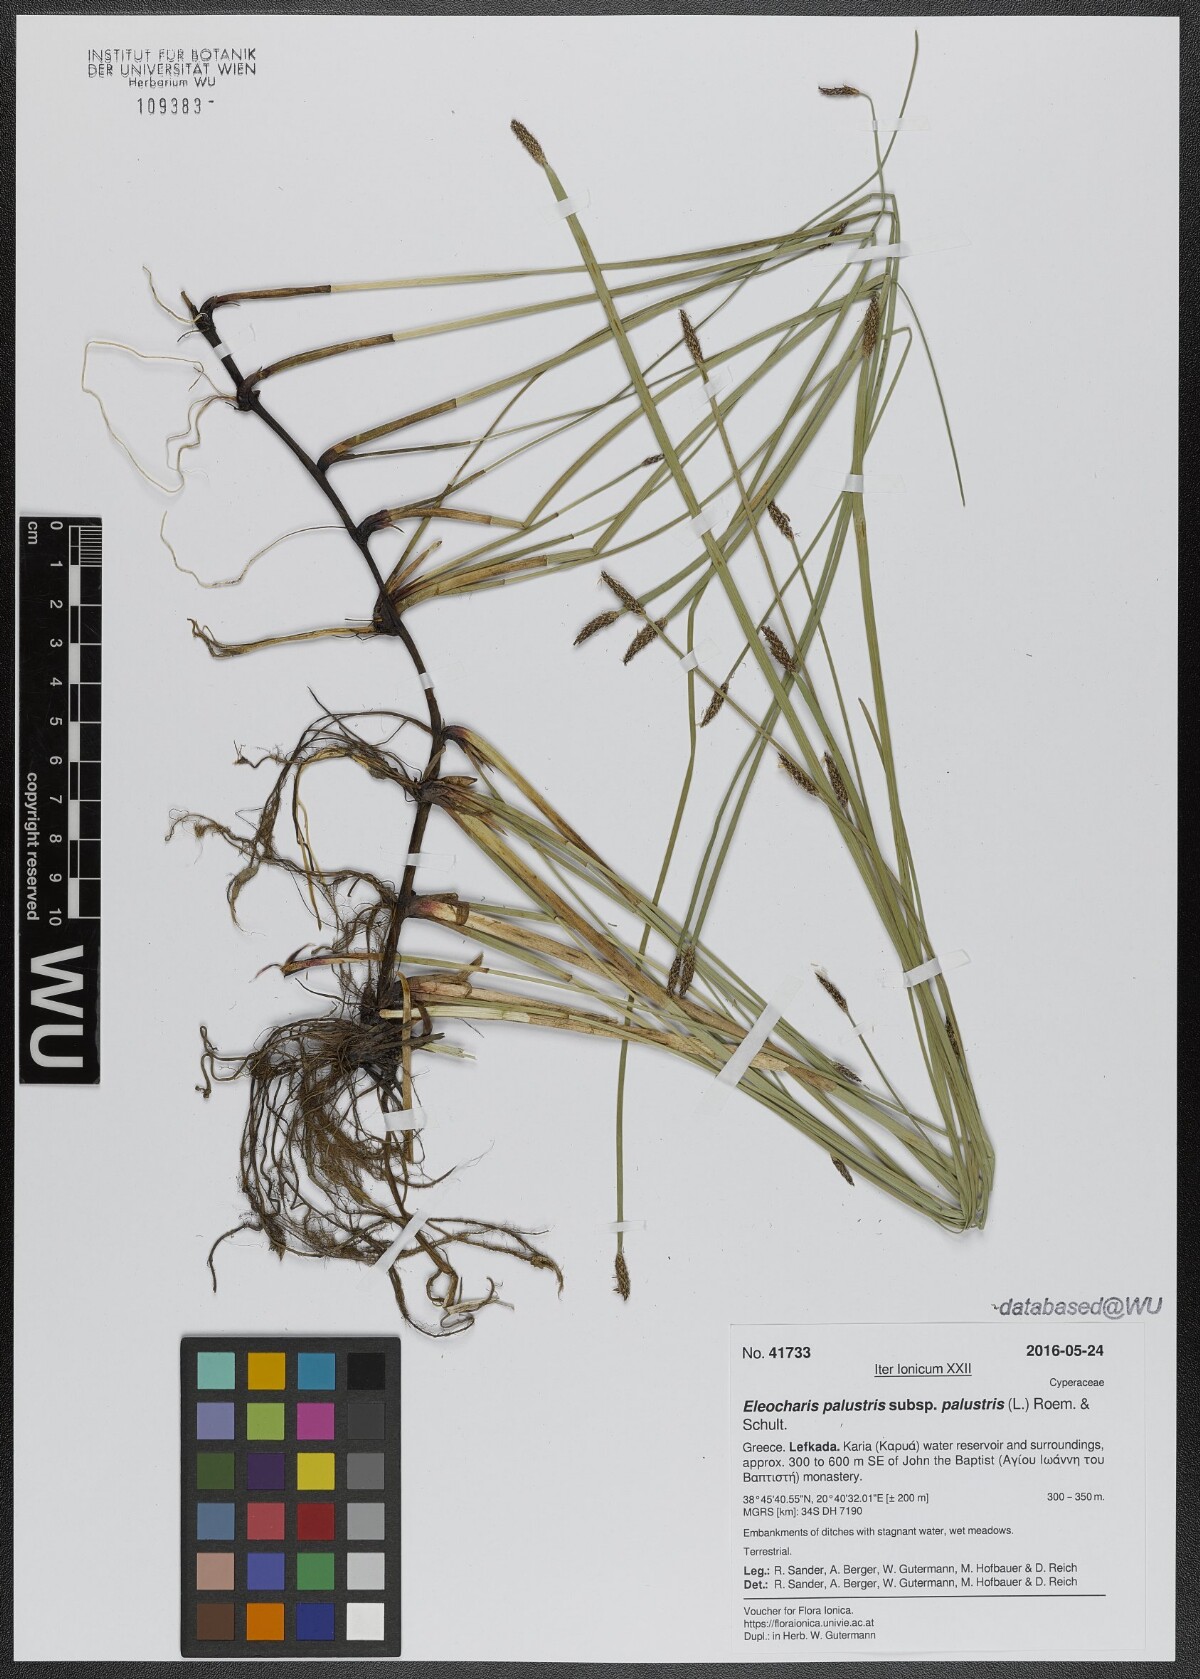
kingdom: Plantae
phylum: Tracheophyta
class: Liliopsida
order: Poales
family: Cyperaceae
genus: Eleocharis
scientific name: Eleocharis palustris
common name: Common spike-rush
